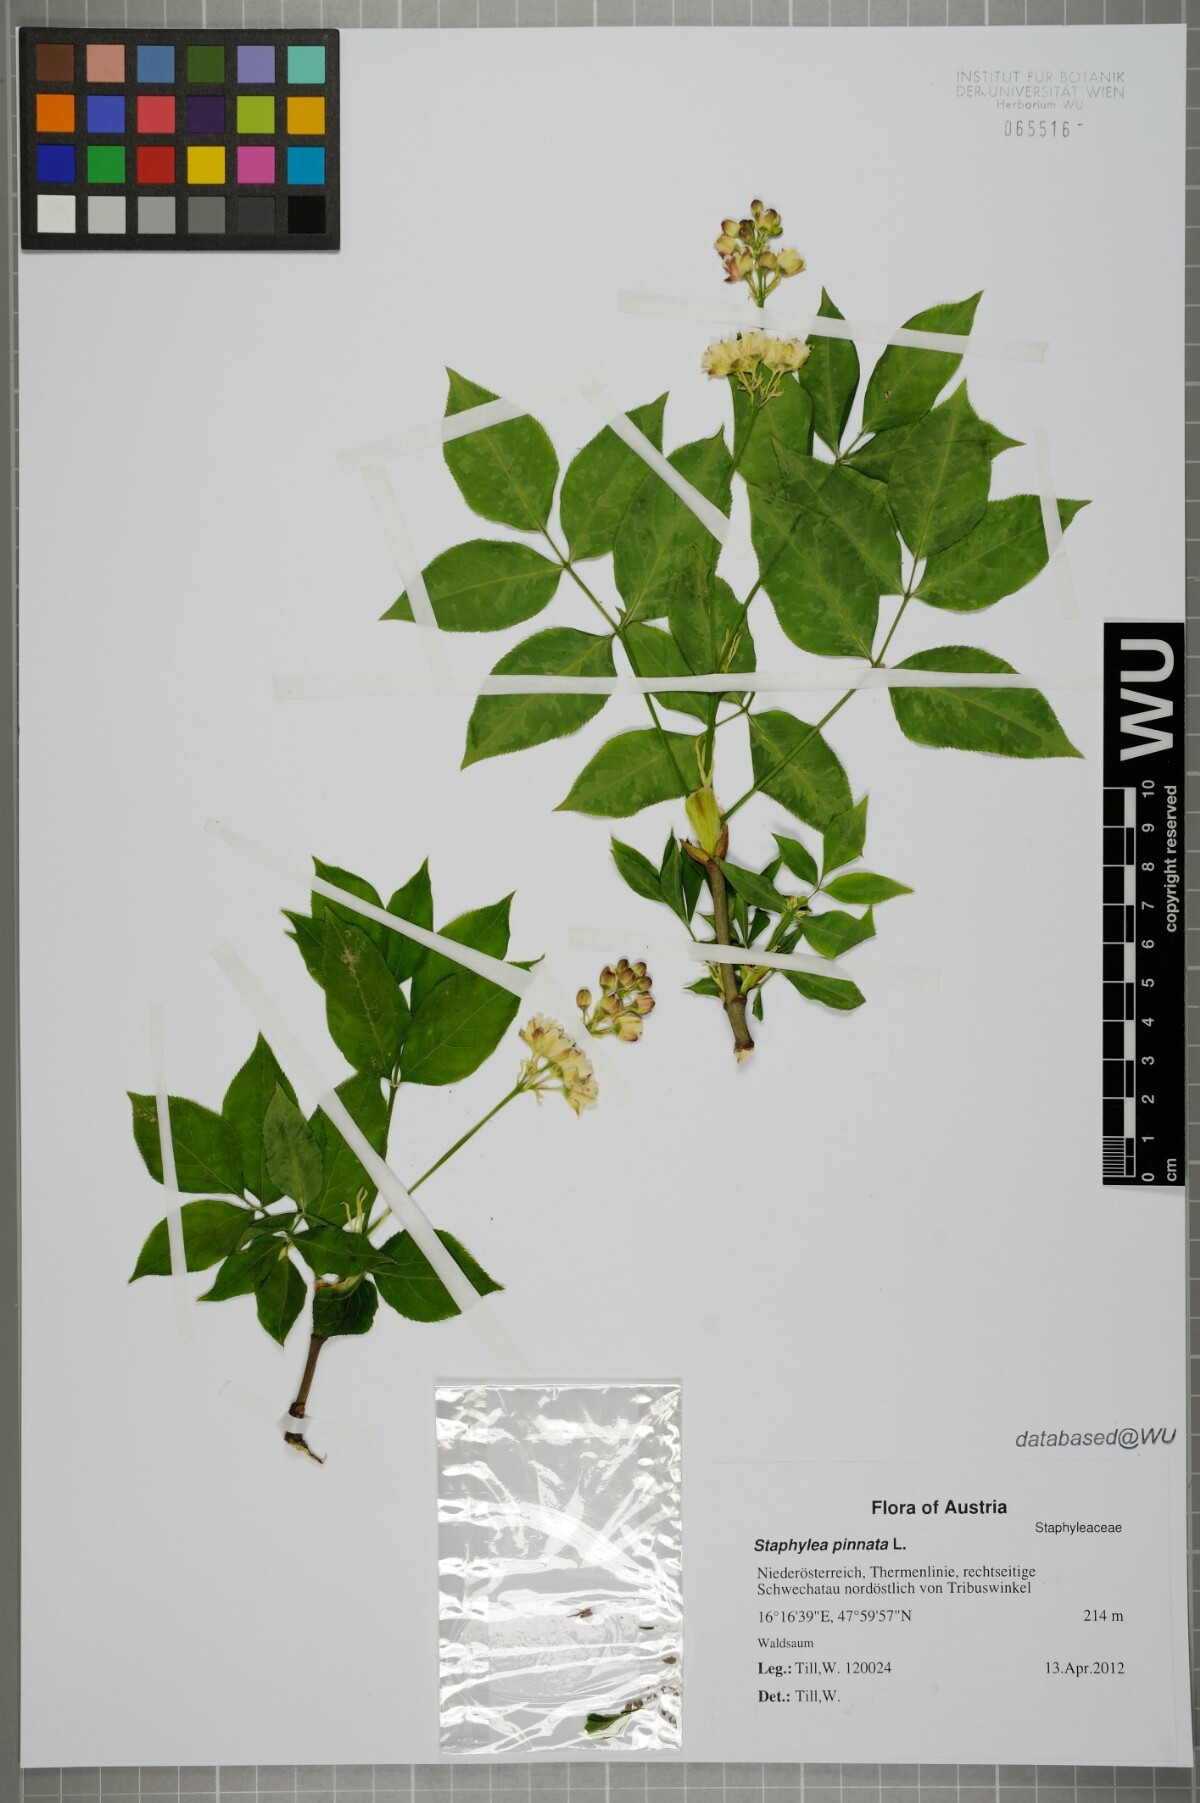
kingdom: Plantae
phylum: Tracheophyta
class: Magnoliopsida
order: Crossosomatales
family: Staphyleaceae
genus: Staphylea
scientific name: Staphylea pinnata
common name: Bladdernut
